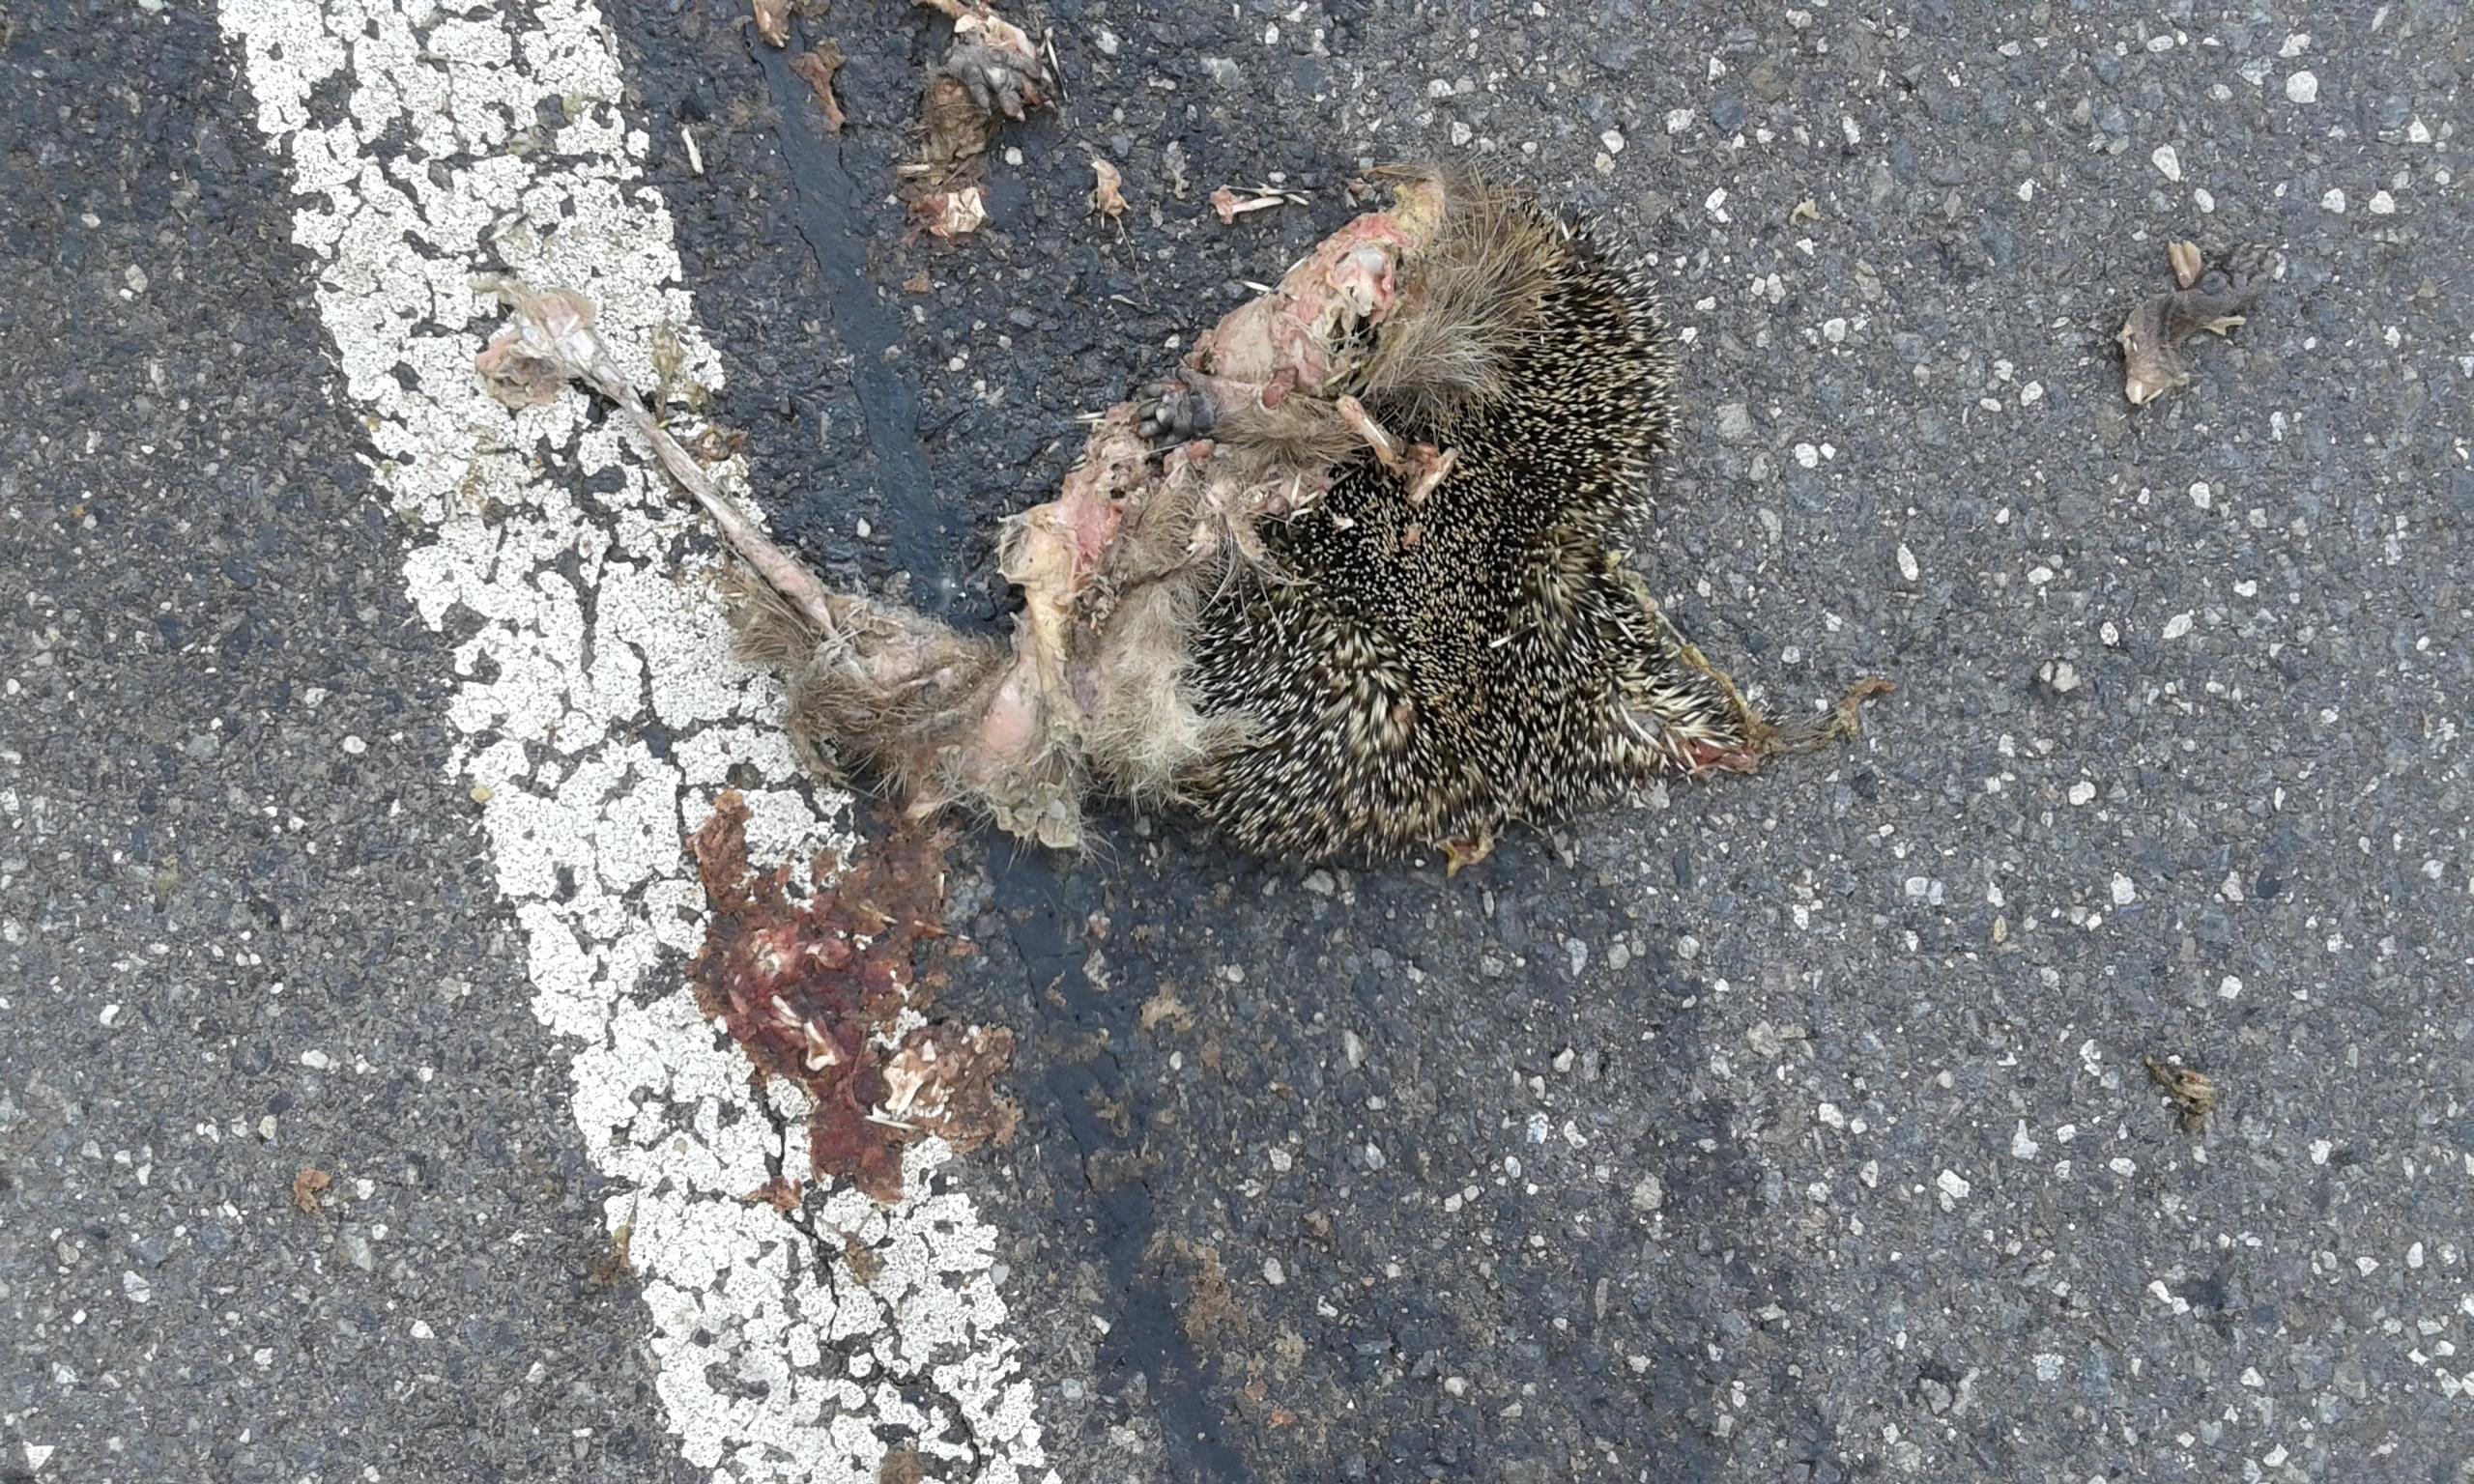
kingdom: Animalia
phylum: Chordata
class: Mammalia
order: Erinaceomorpha
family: Erinaceidae
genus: Erinaceus
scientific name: Erinaceus
